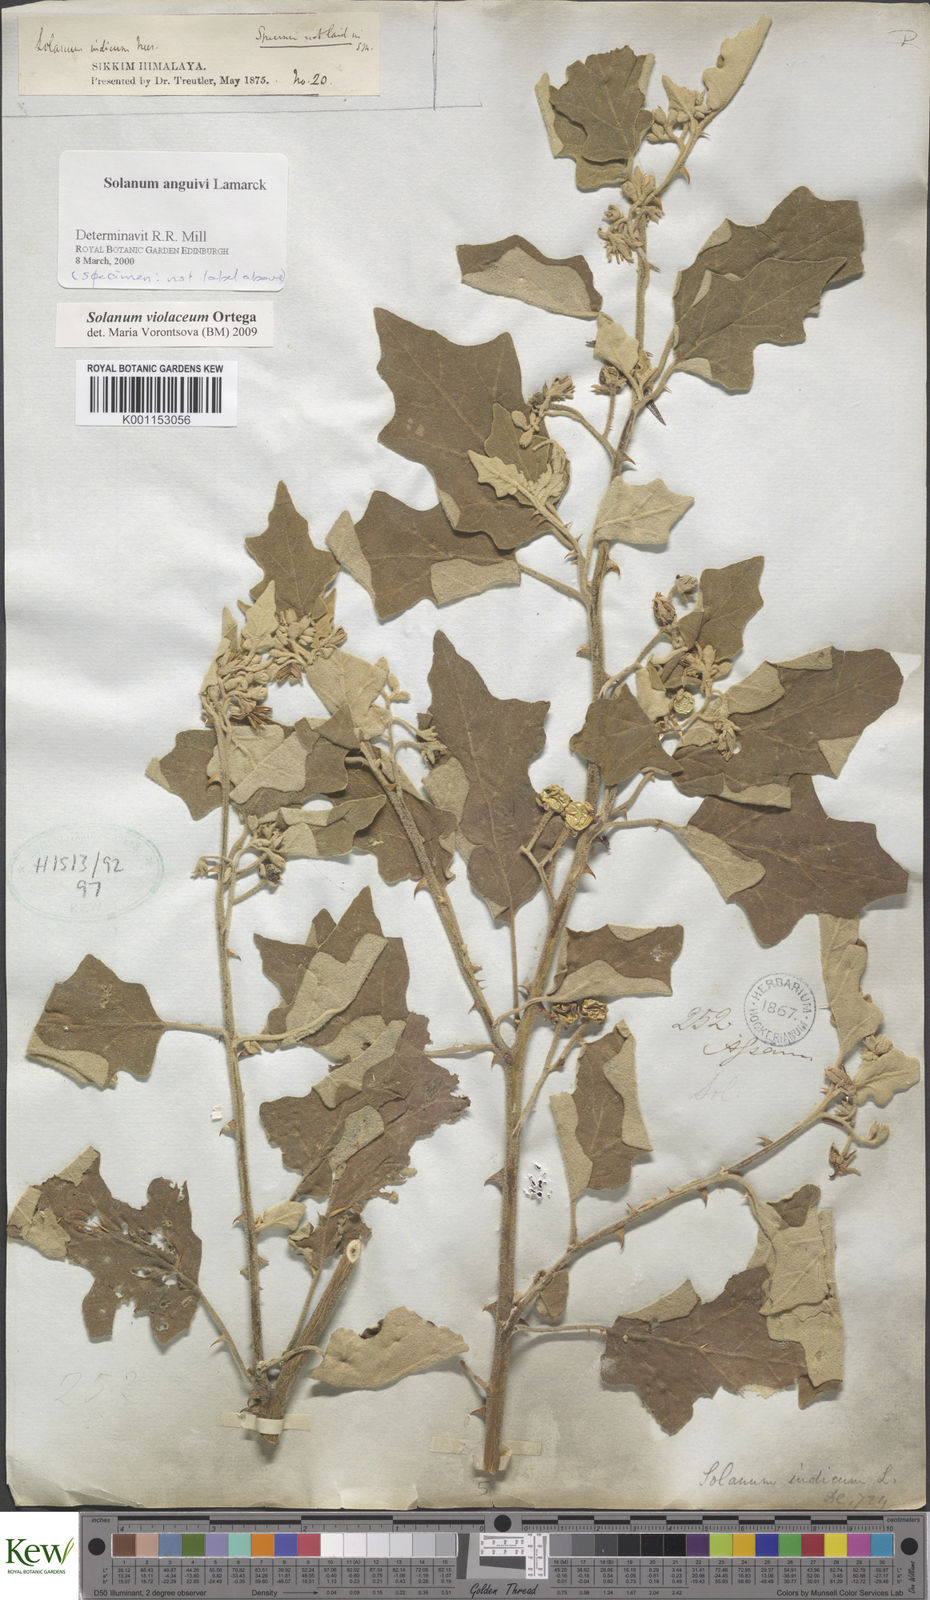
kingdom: Plantae
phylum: Tracheophyta
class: Magnoliopsida
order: Solanales
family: Solanaceae
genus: Solanum
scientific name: Solanum violaceum
